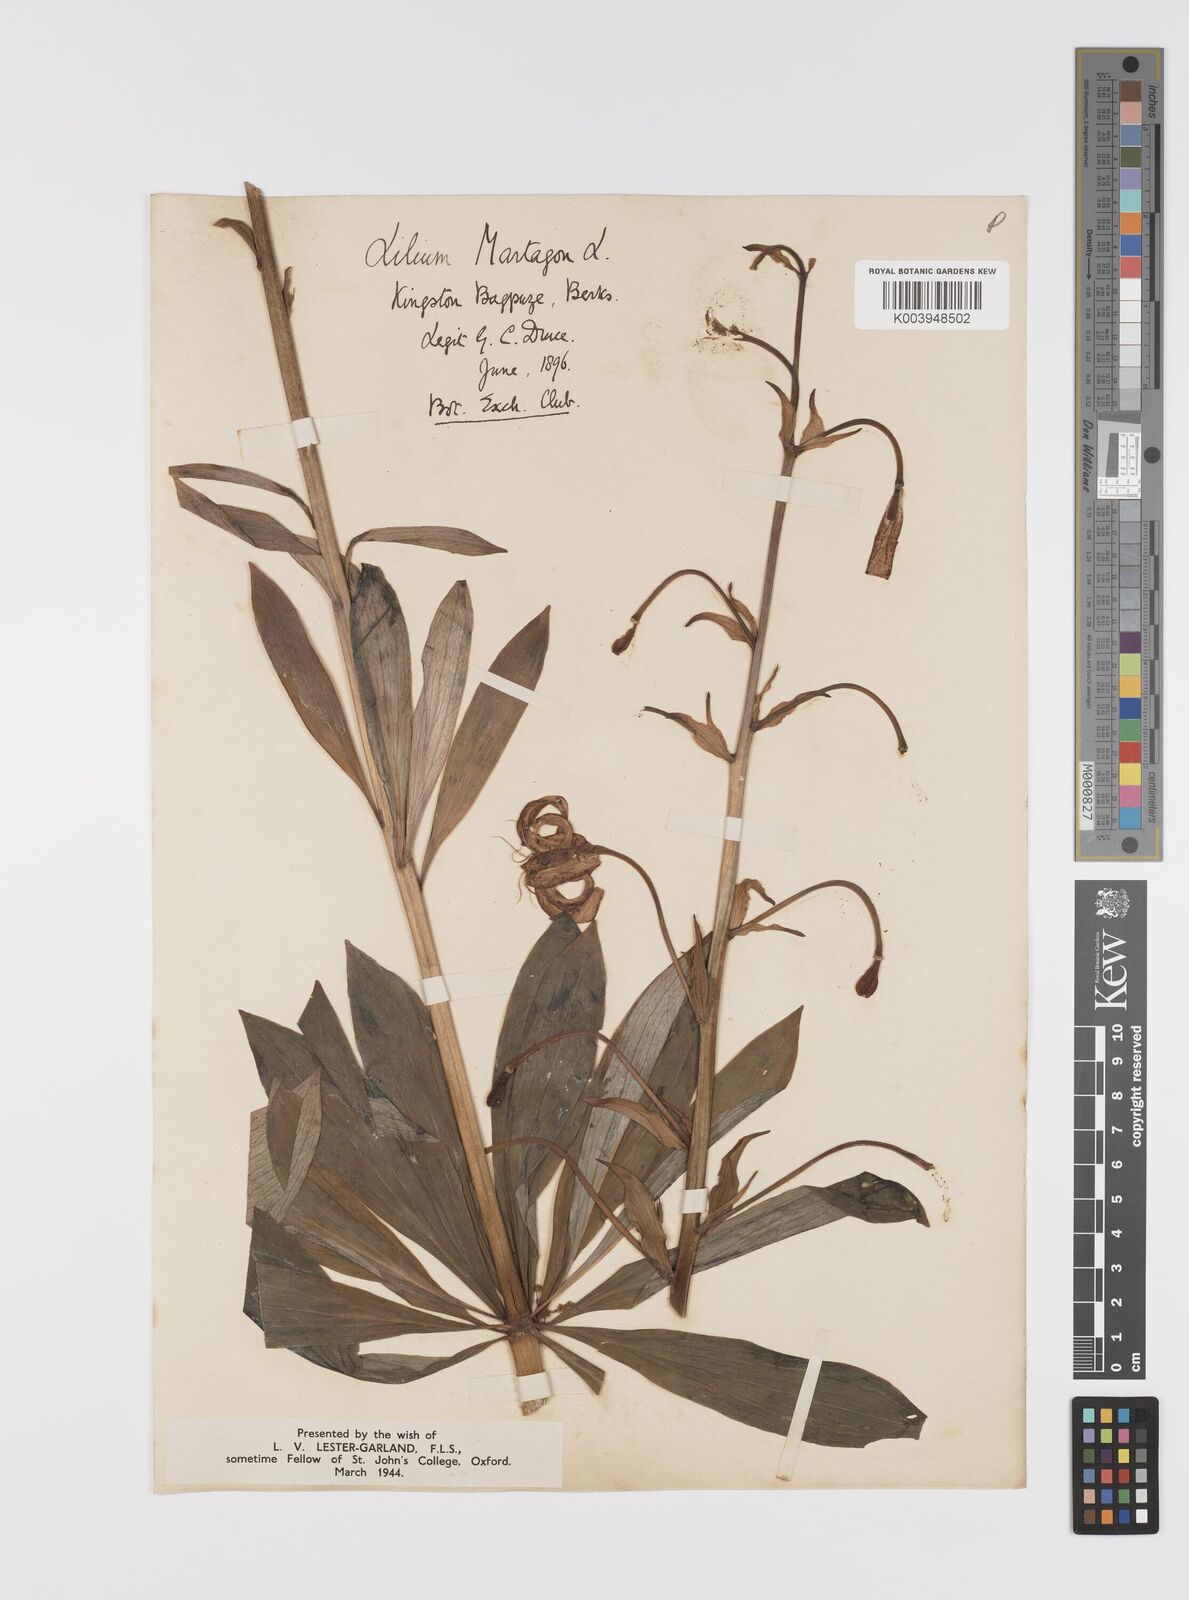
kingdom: Plantae
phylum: Tracheophyta
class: Liliopsida
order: Liliales
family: Liliaceae
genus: Lilium
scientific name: Lilium martagon
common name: Martagon lily
